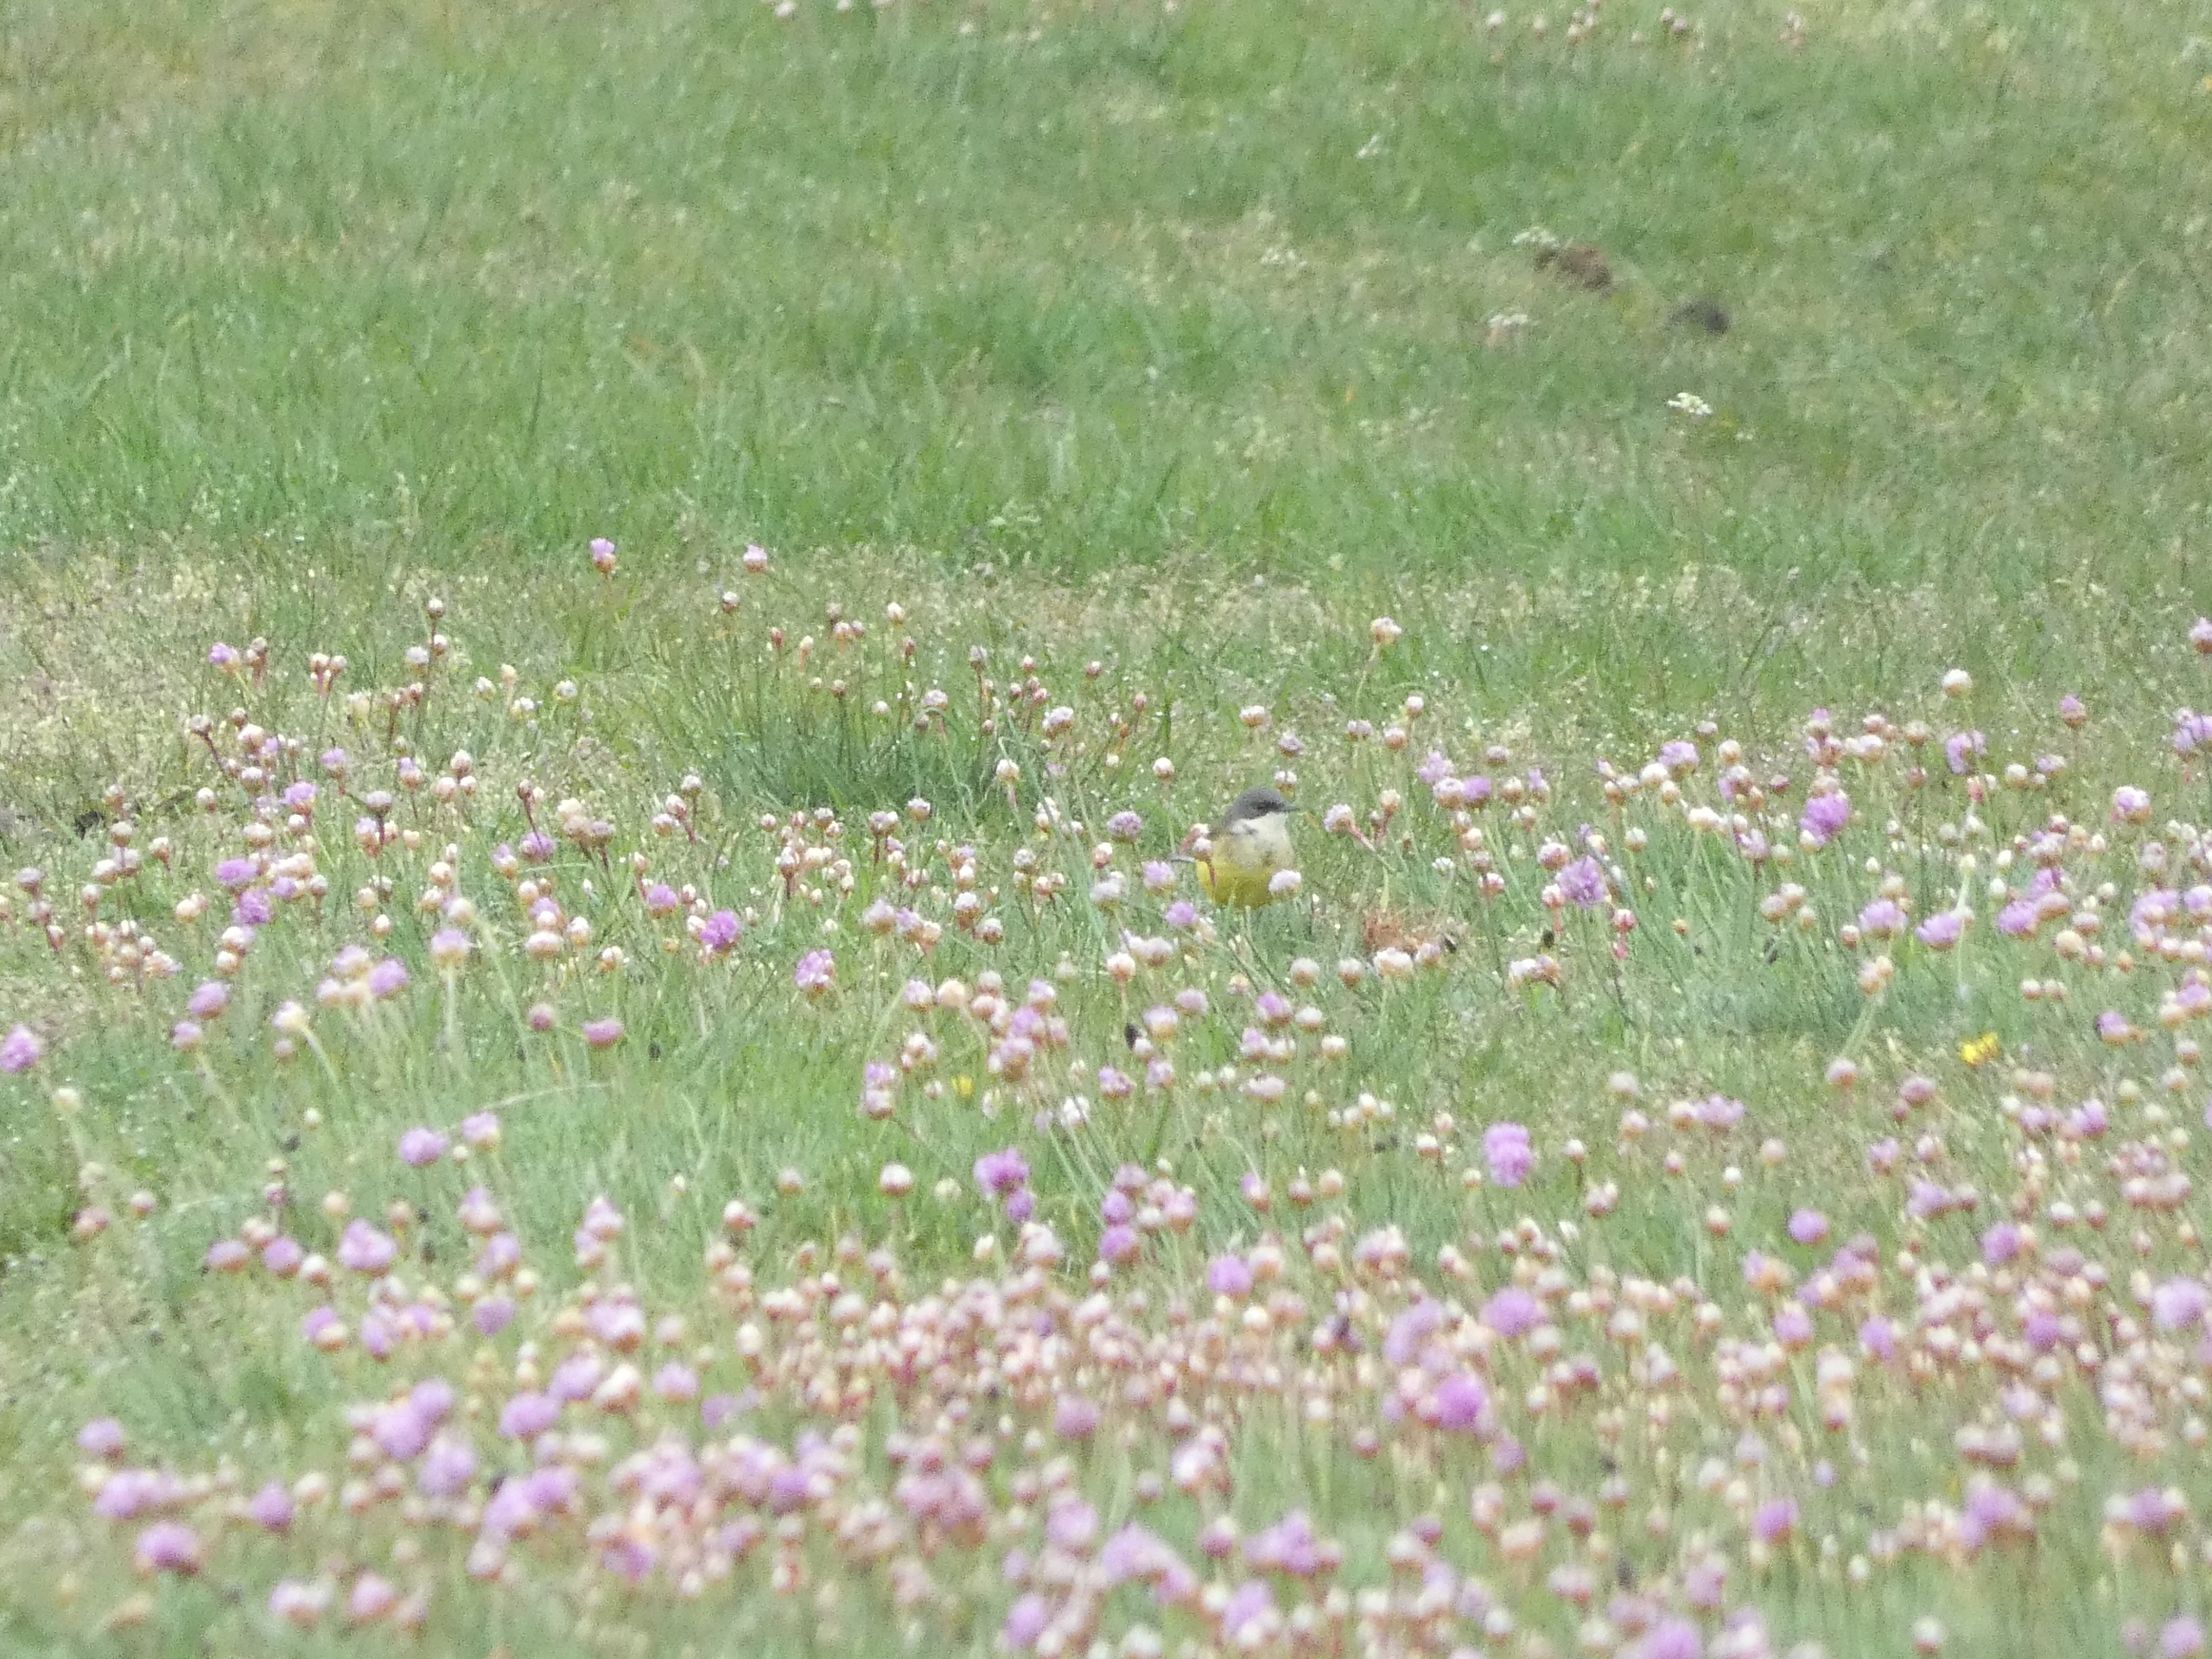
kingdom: Animalia
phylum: Chordata
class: Aves
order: Passeriformes
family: Motacillidae
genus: Motacilla
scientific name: Motacilla flava
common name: Nordlig vipstjert
